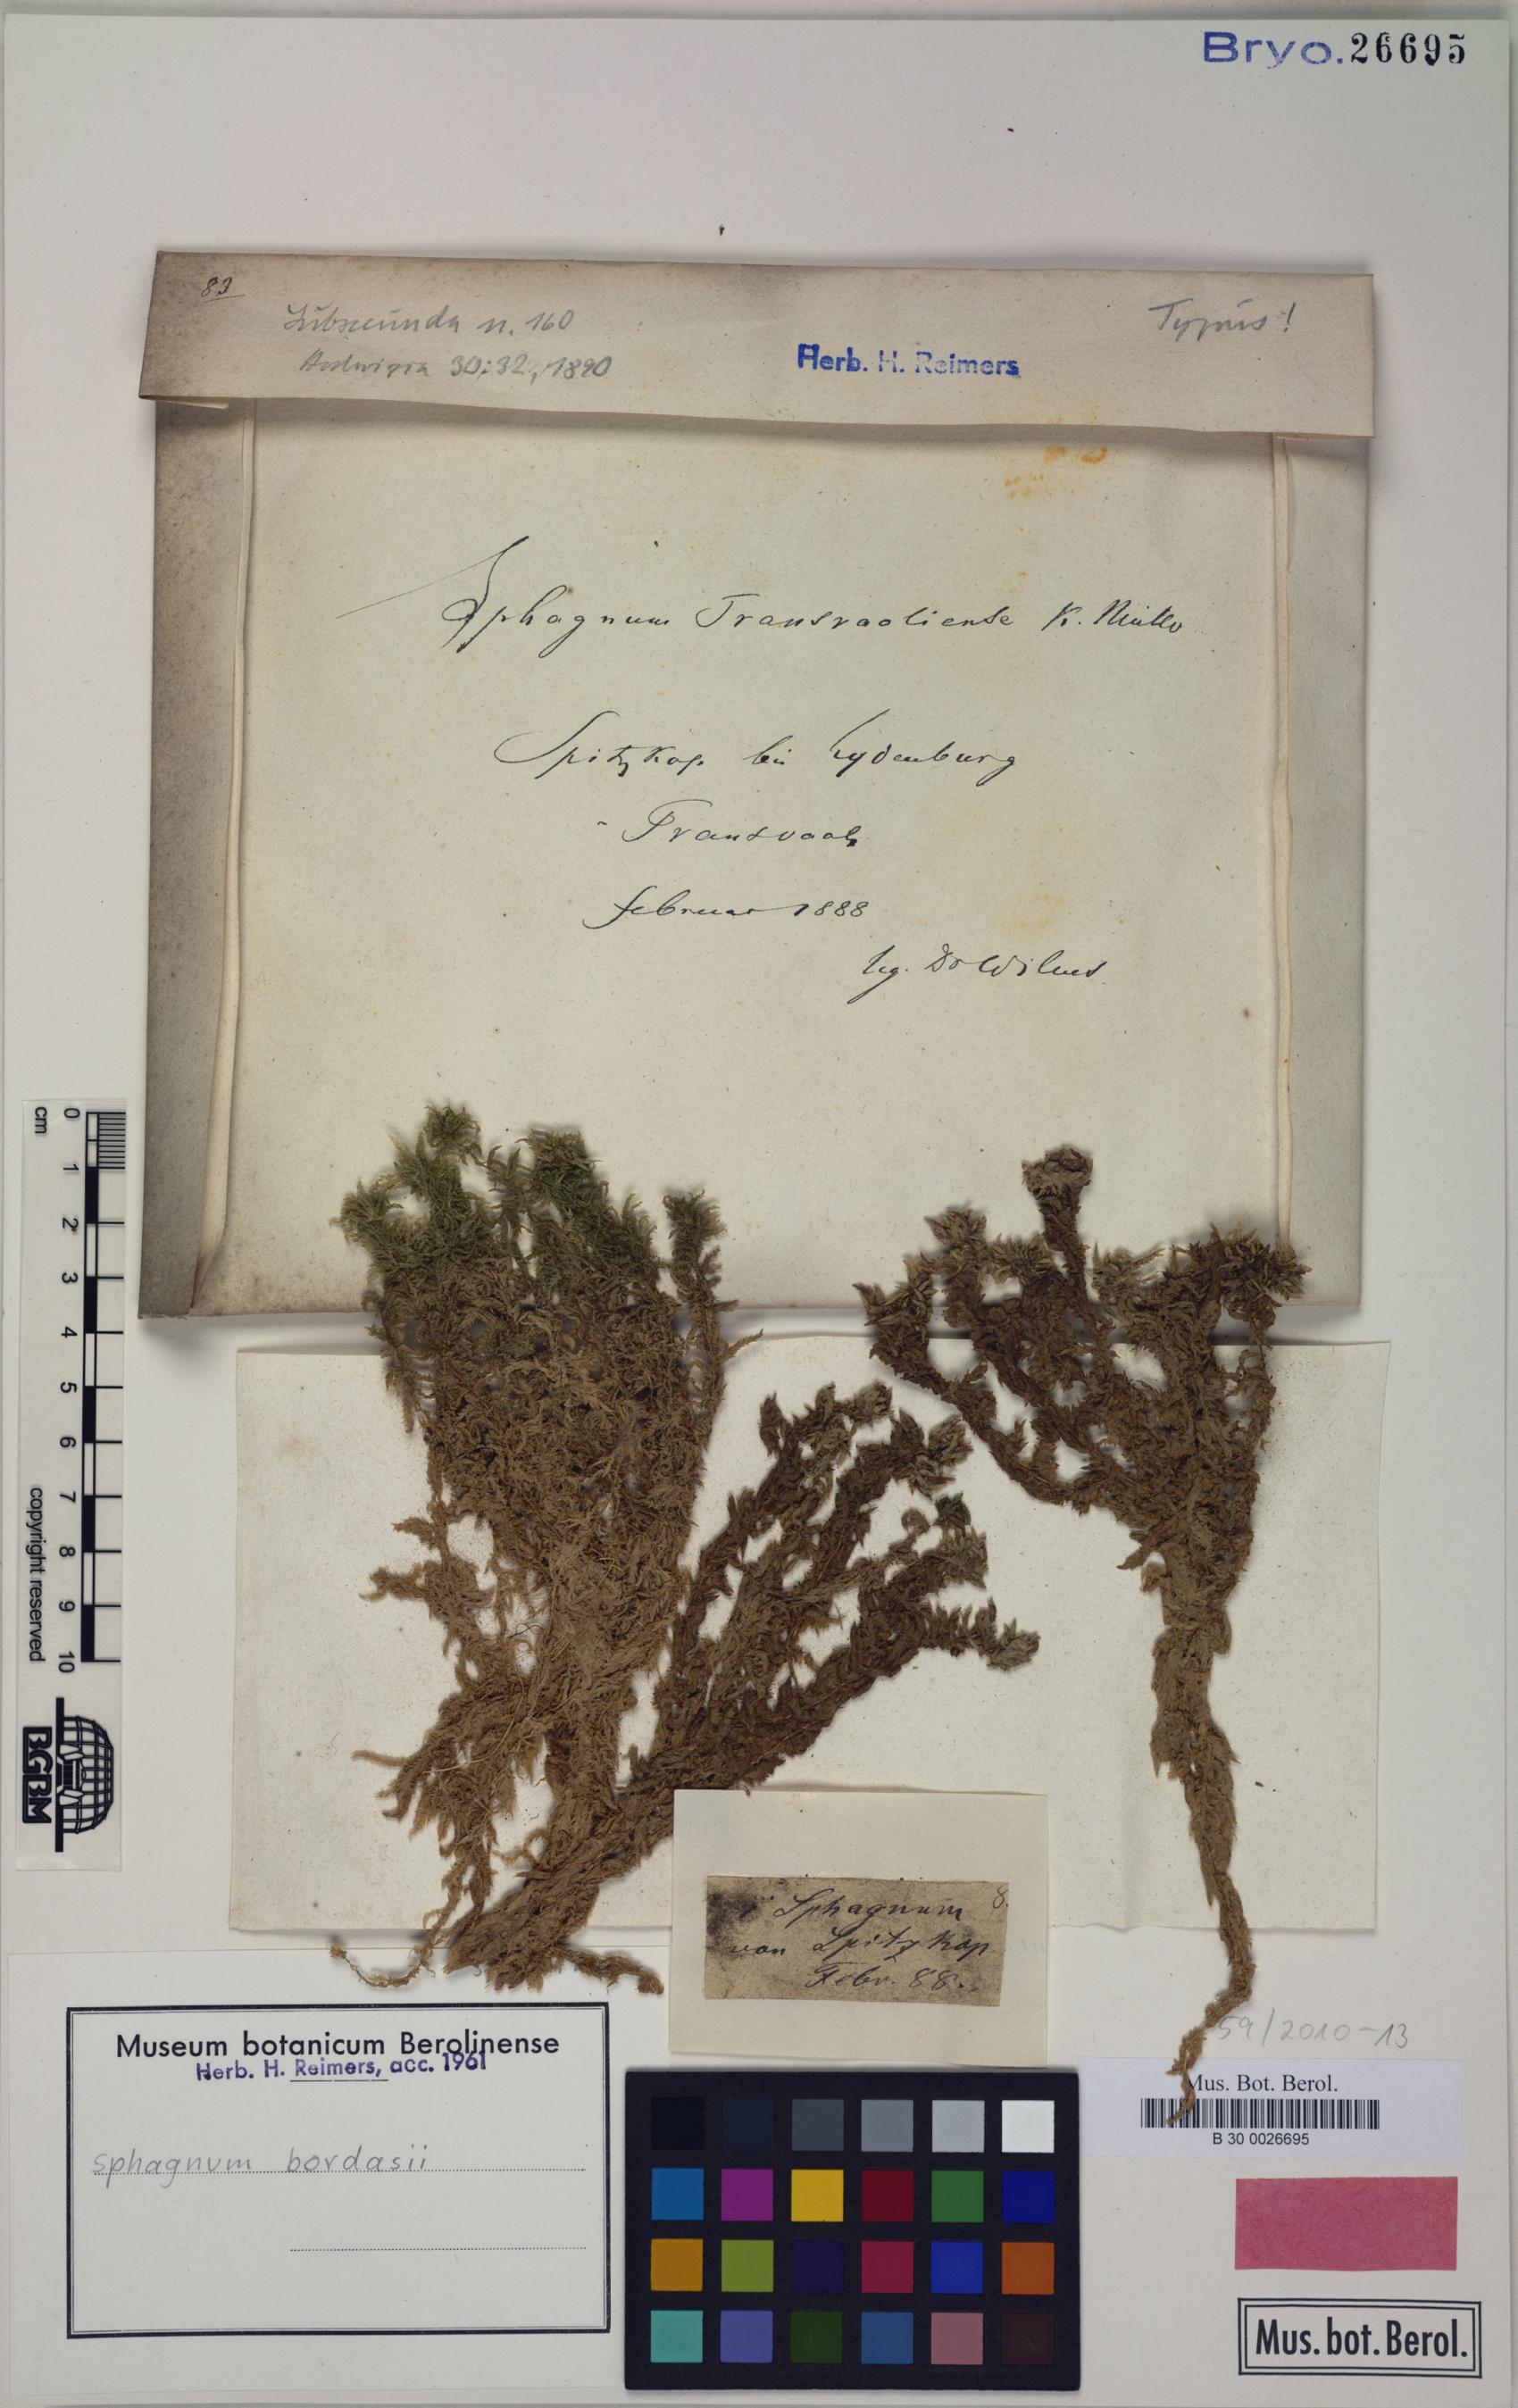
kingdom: Plantae
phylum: Bryophyta
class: Sphagnopsida
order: Sphagnales
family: Sphagnaceae
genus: Sphagnum
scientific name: Sphagnum truncatum
